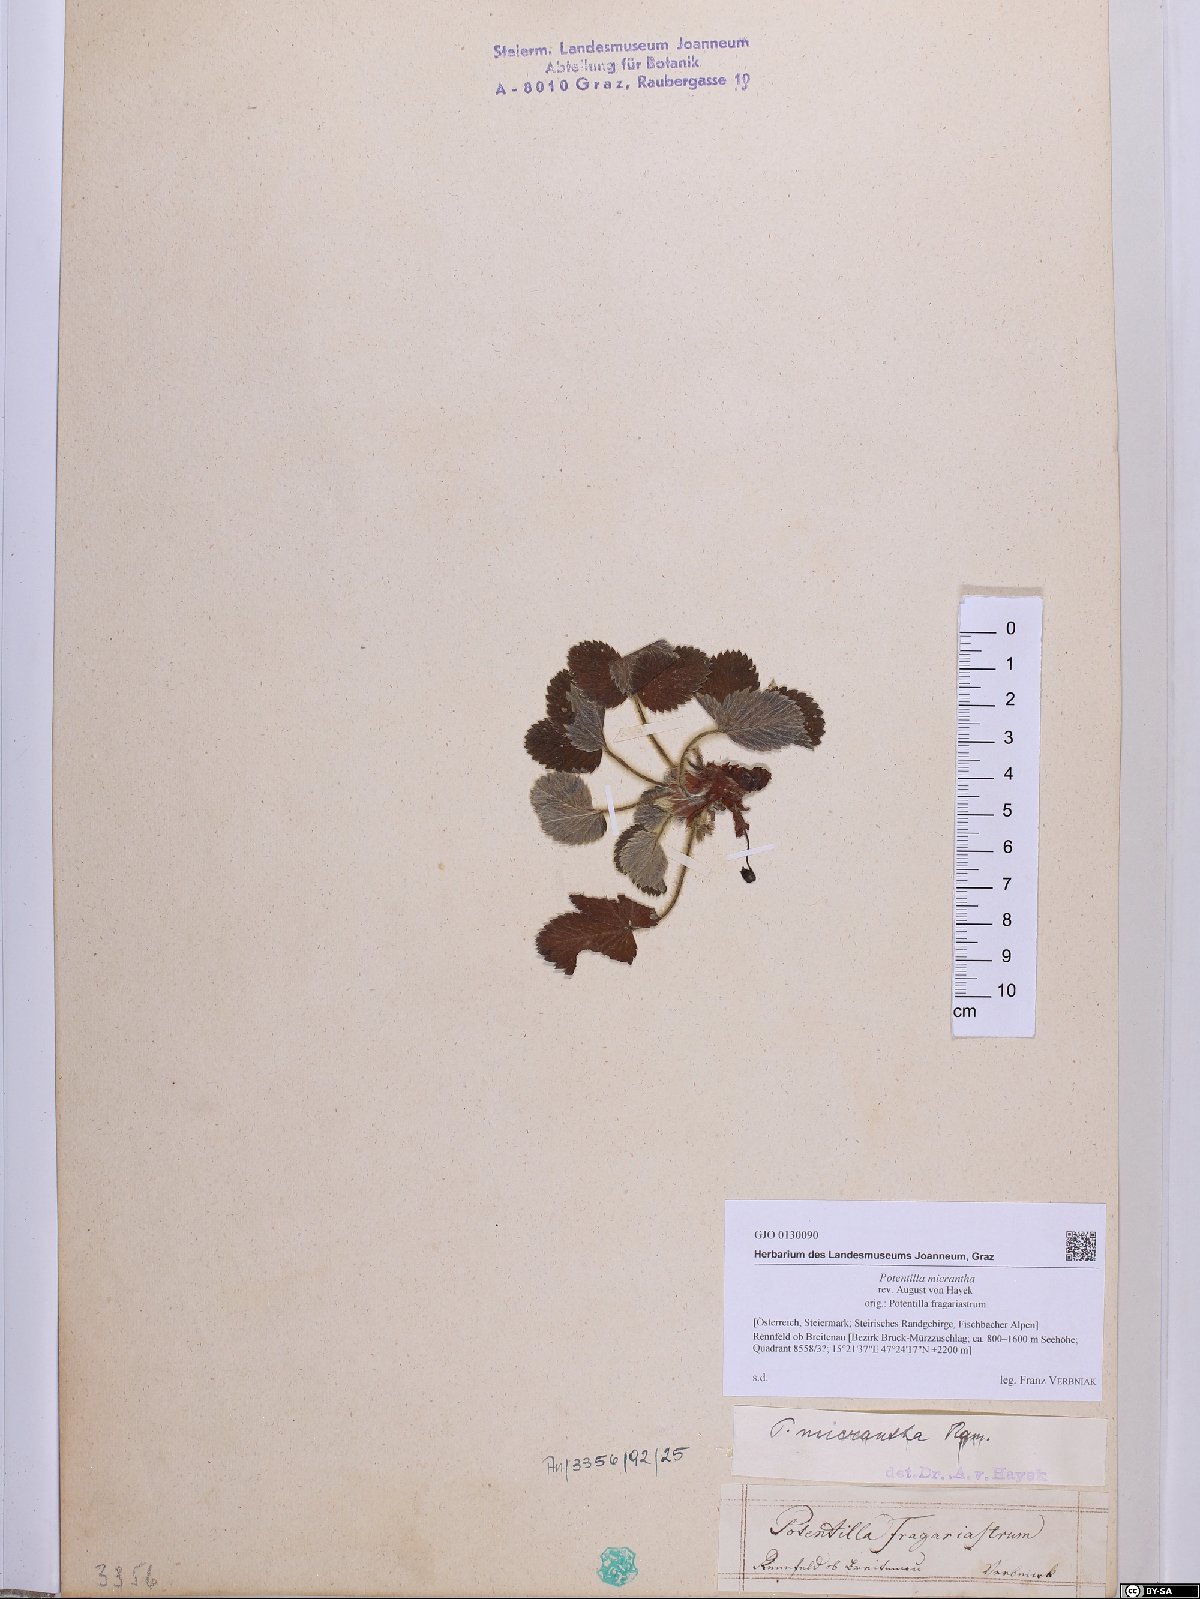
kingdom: Plantae
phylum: Tracheophyta
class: Magnoliopsida
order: Rosales
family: Rosaceae
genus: Potentilla
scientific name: Potentilla micrantha
